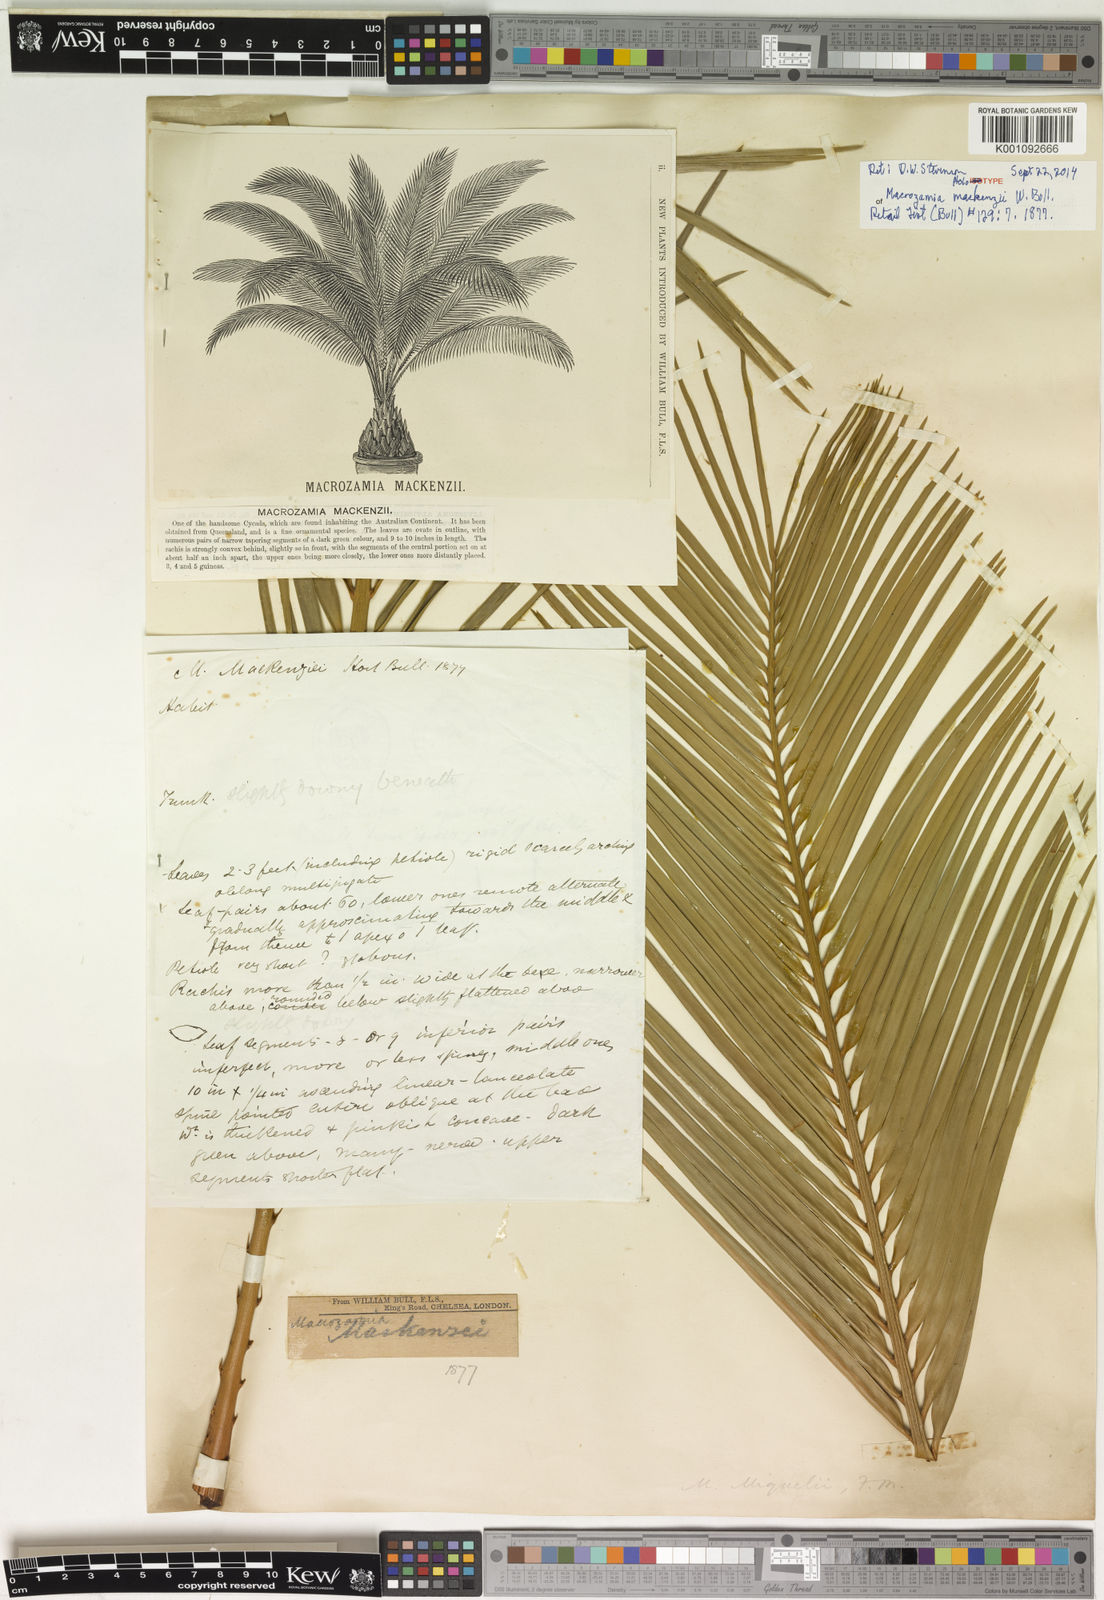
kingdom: Plantae
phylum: Tracheophyta
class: Cycadopsida
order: Cycadales
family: Zamiaceae
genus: Macrozamia
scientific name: Macrozamia miquelii
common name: Wild pineapple
